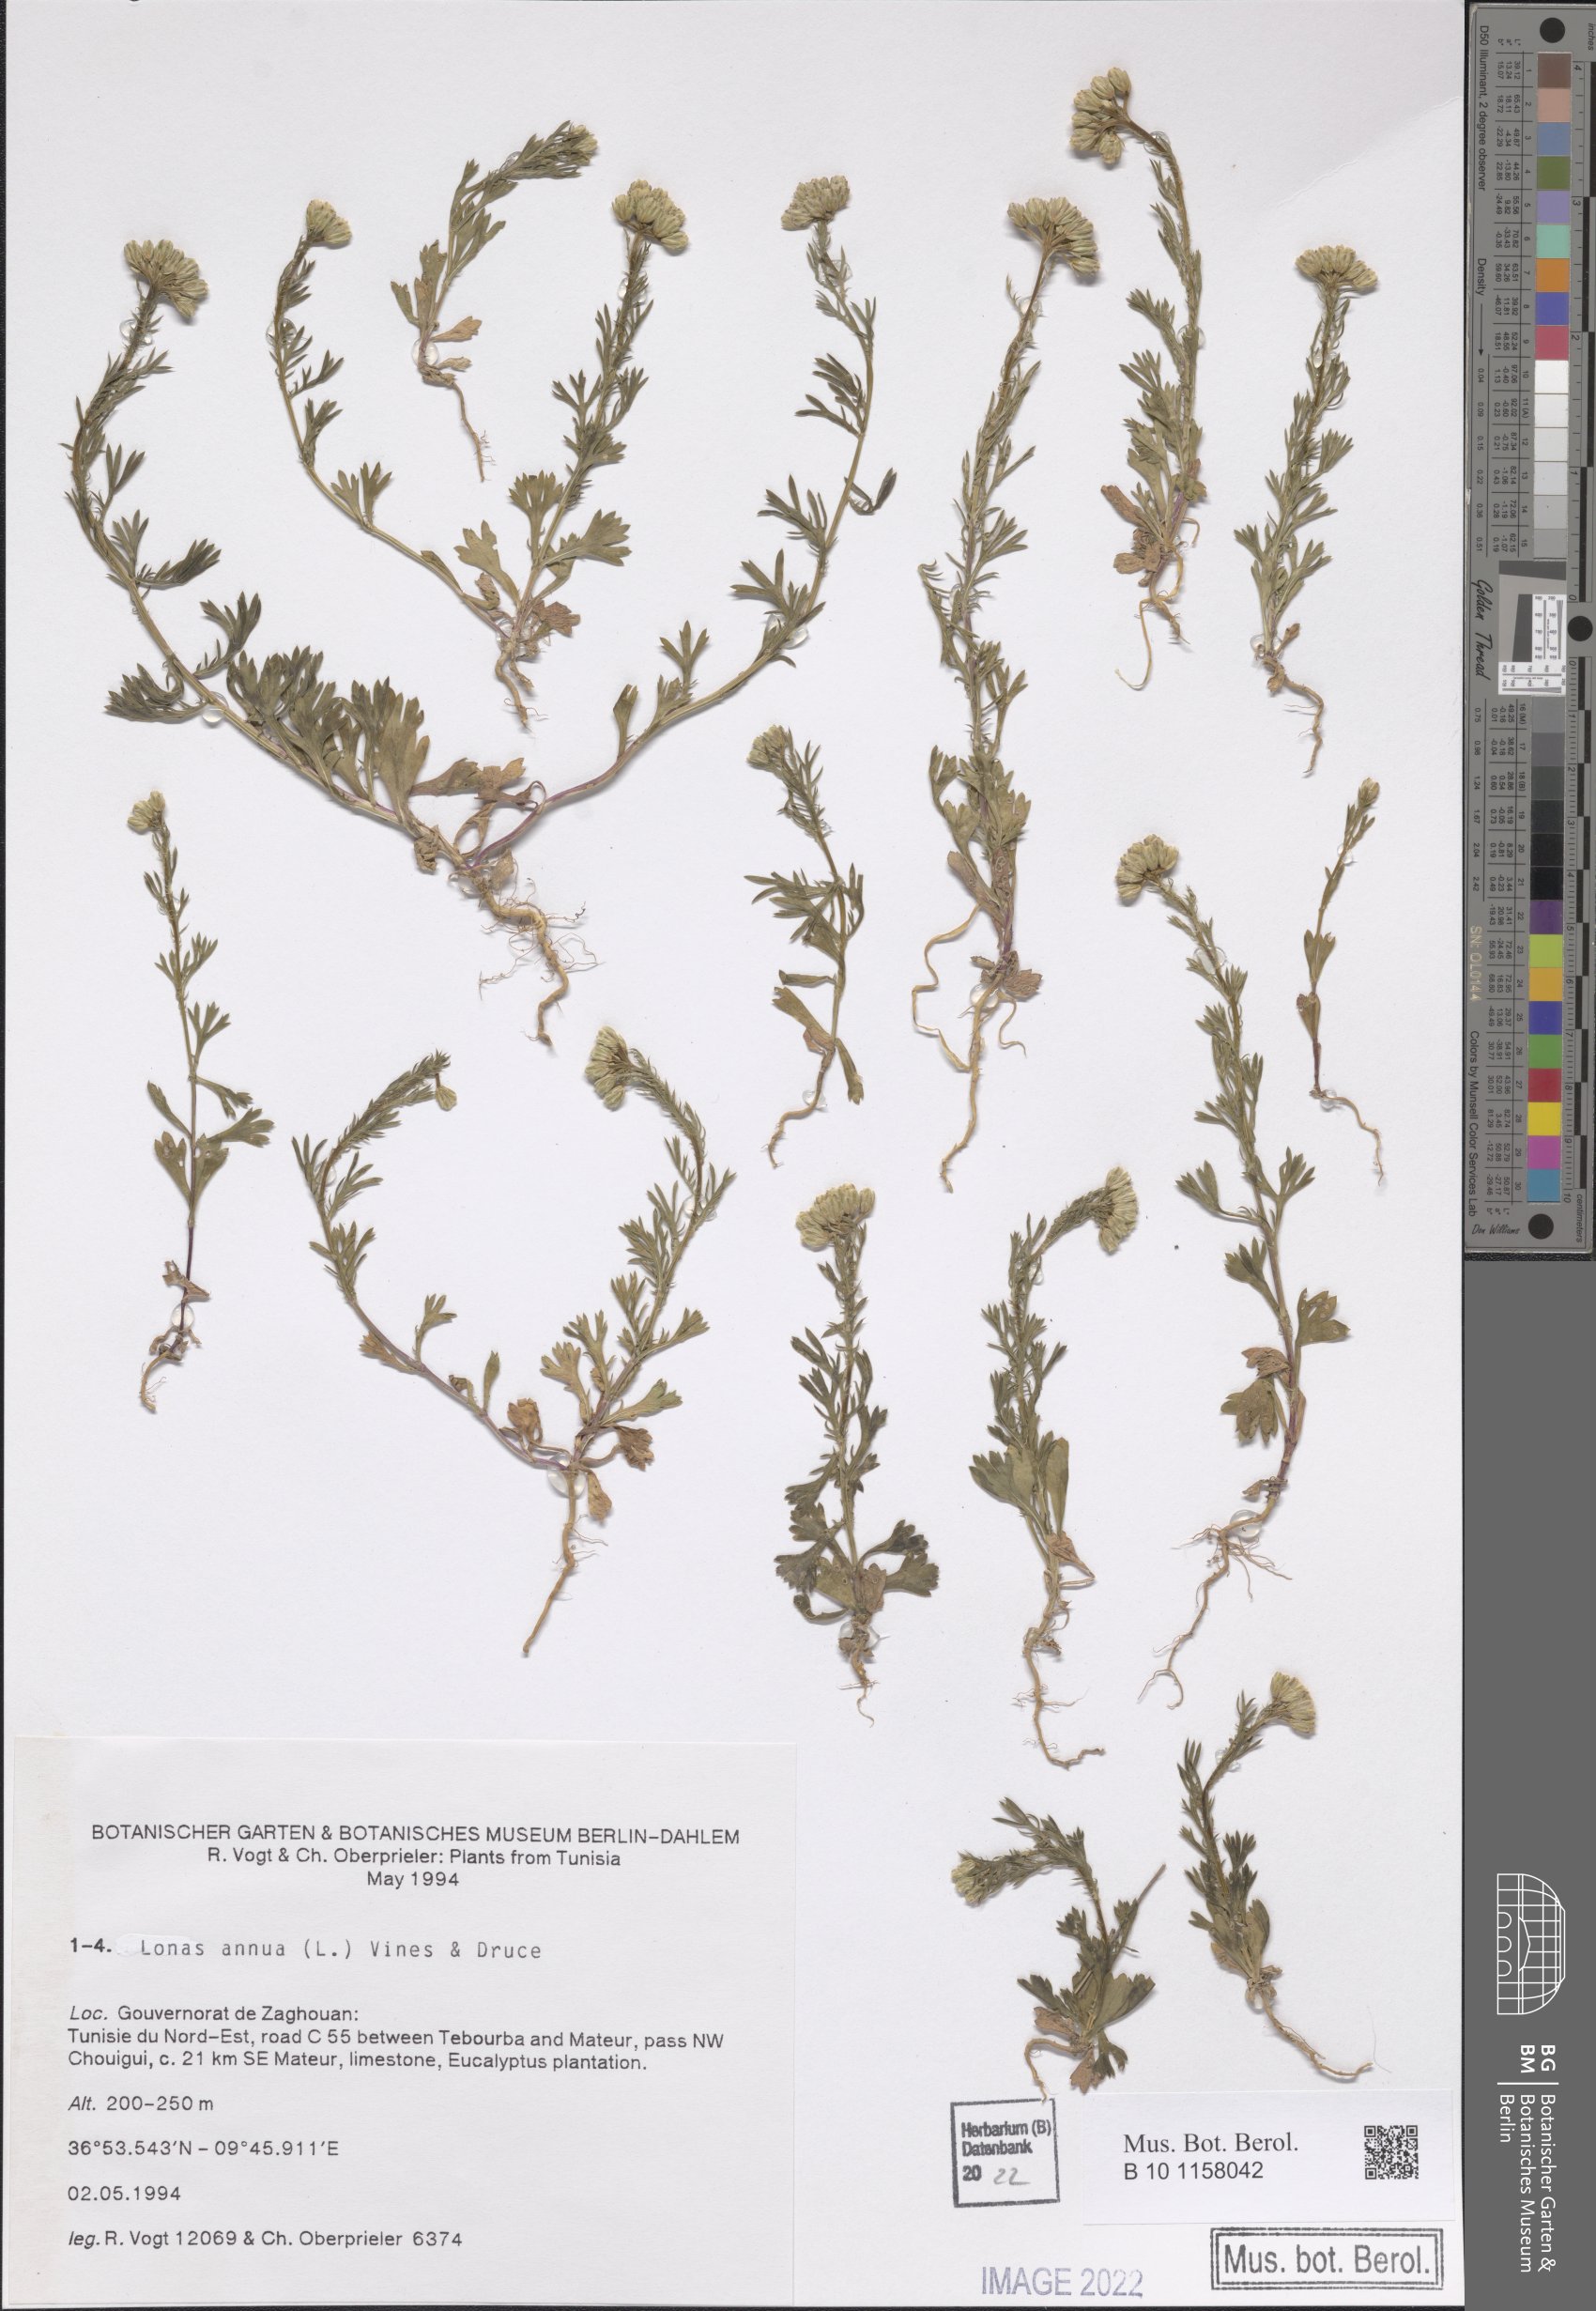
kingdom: Plantae
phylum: Tracheophyta
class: Magnoliopsida
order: Asterales
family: Asteraceae
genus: Lonas
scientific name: Lonas annua
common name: African daisy
